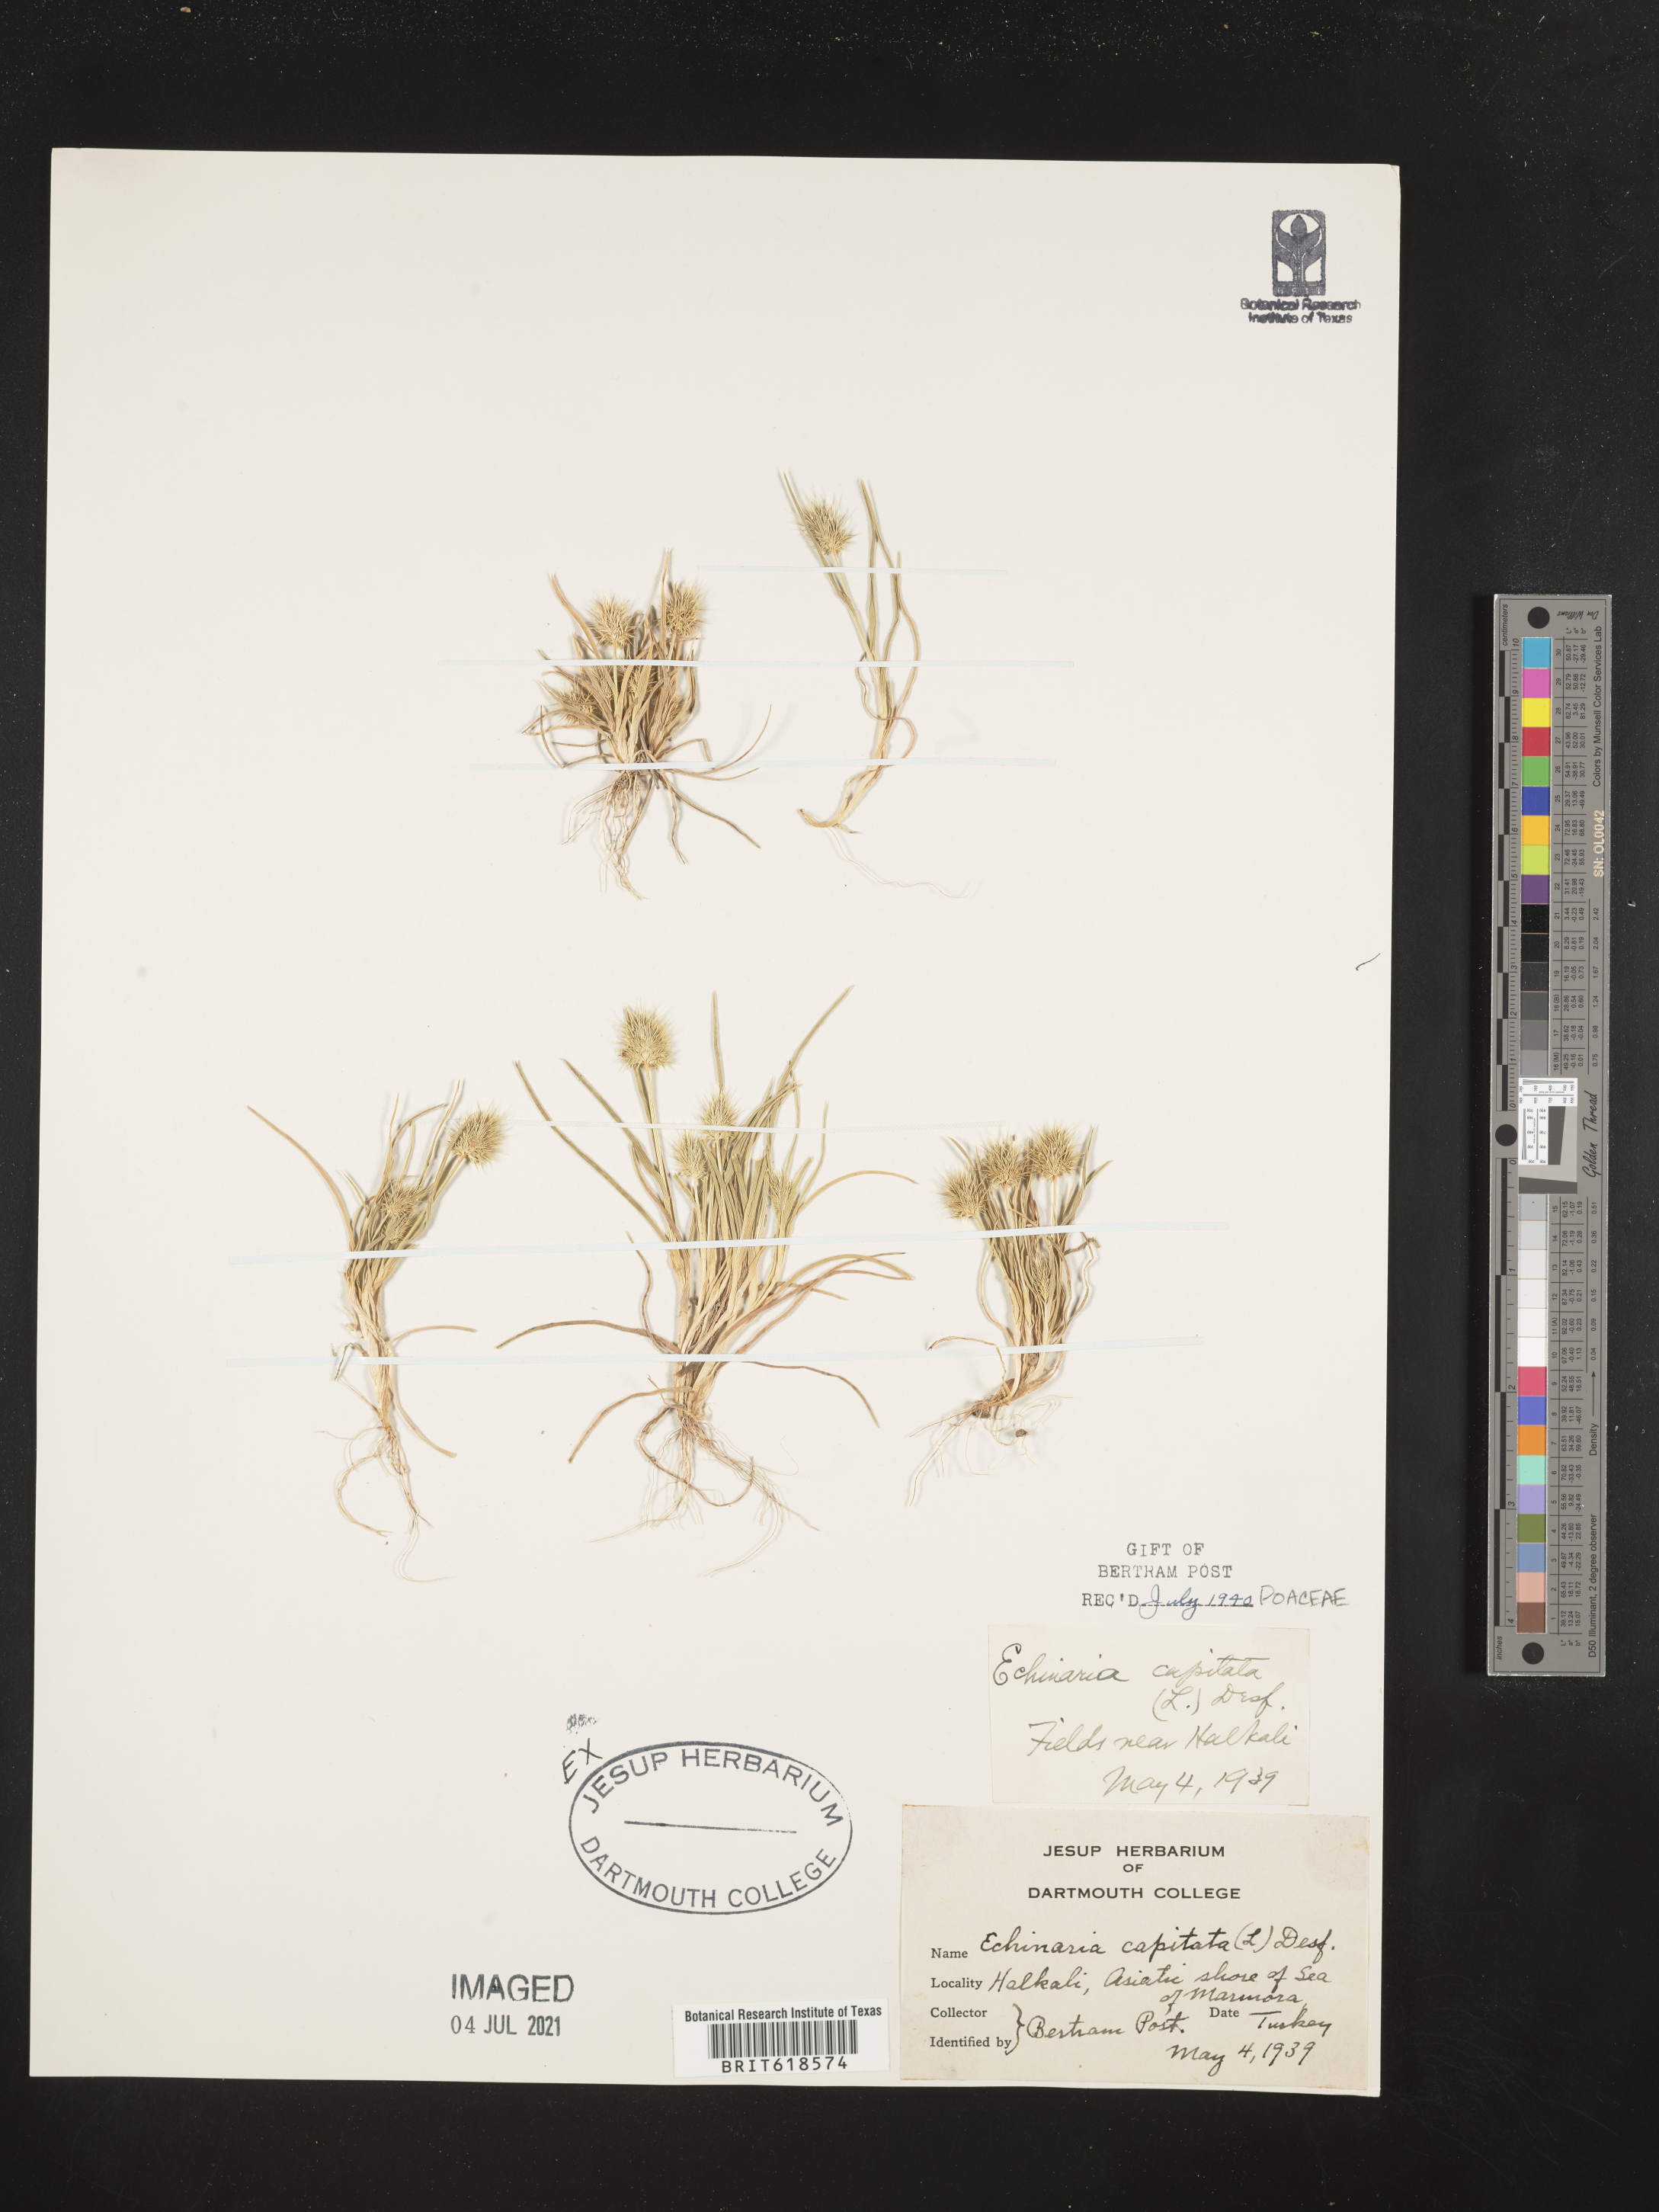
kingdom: Plantae
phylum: Tracheophyta
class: Liliopsida
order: Poales
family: Poaceae
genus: Echinaria
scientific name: Echinaria capitata
